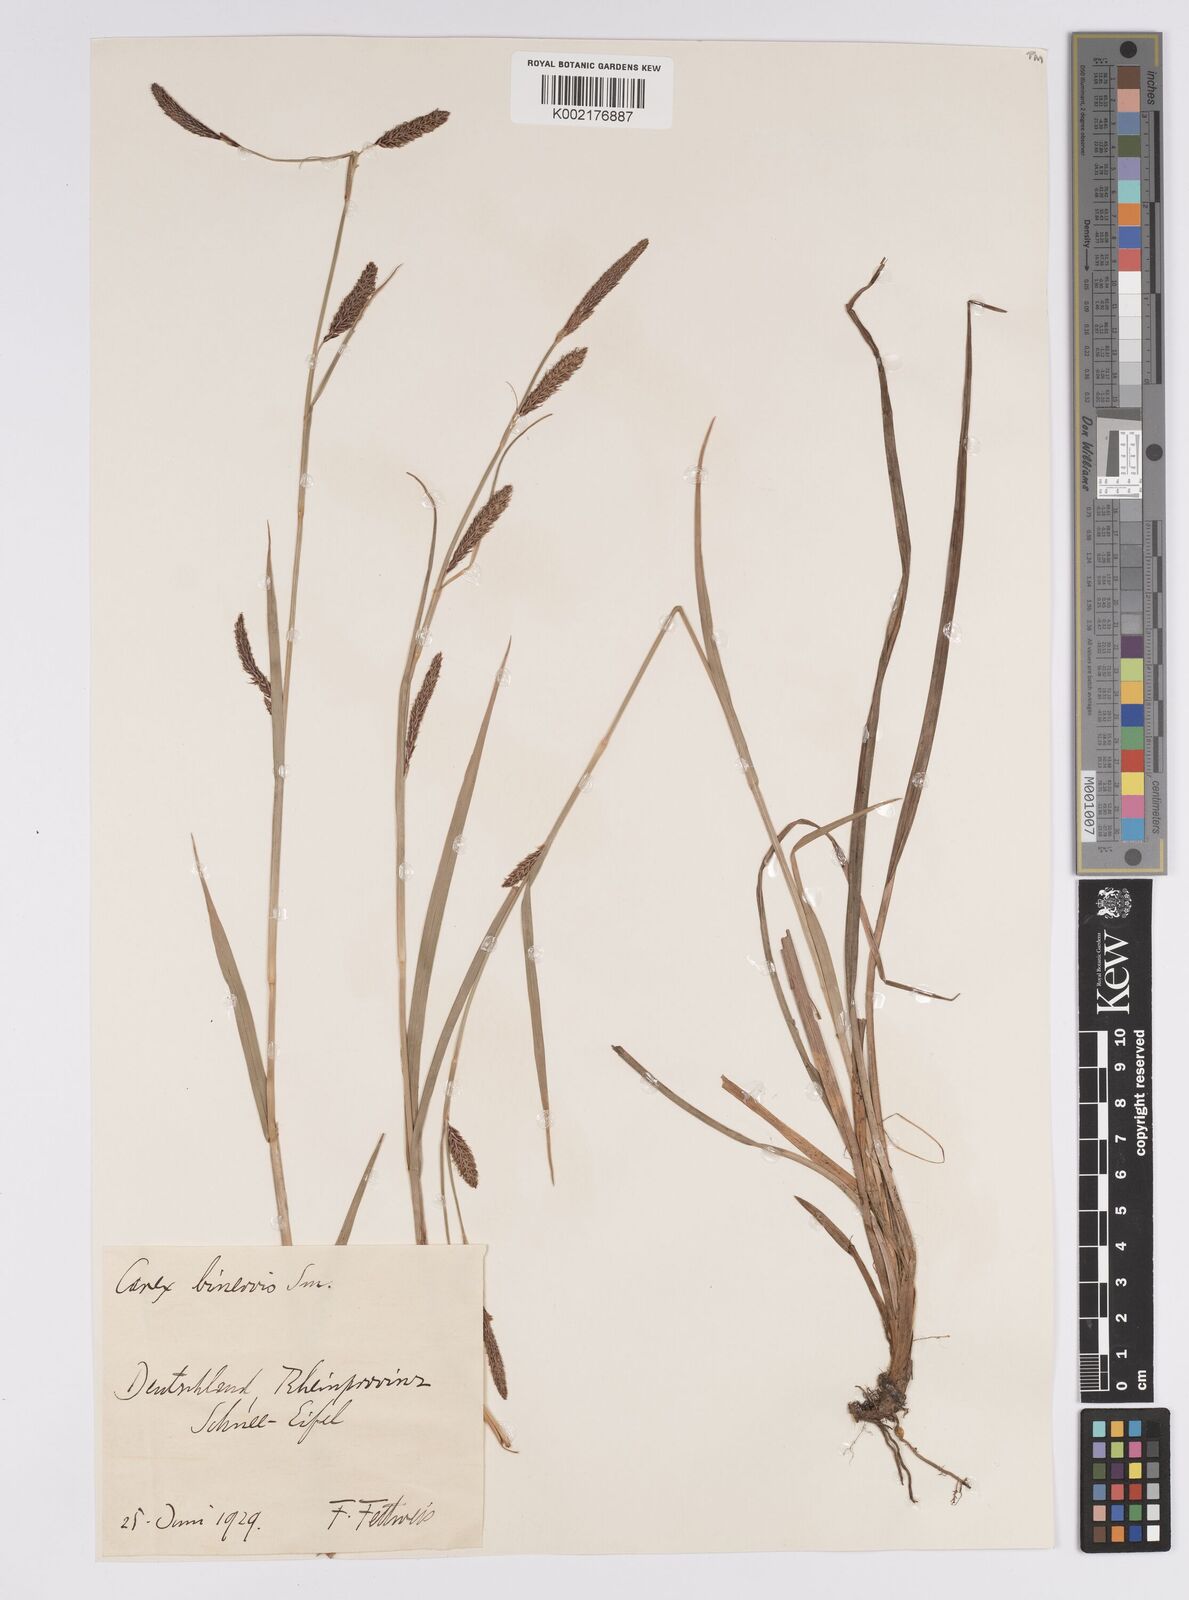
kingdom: Plantae
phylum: Tracheophyta
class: Liliopsida
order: Poales
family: Cyperaceae
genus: Carex
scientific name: Carex binervis
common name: Green-ribbed sedge
